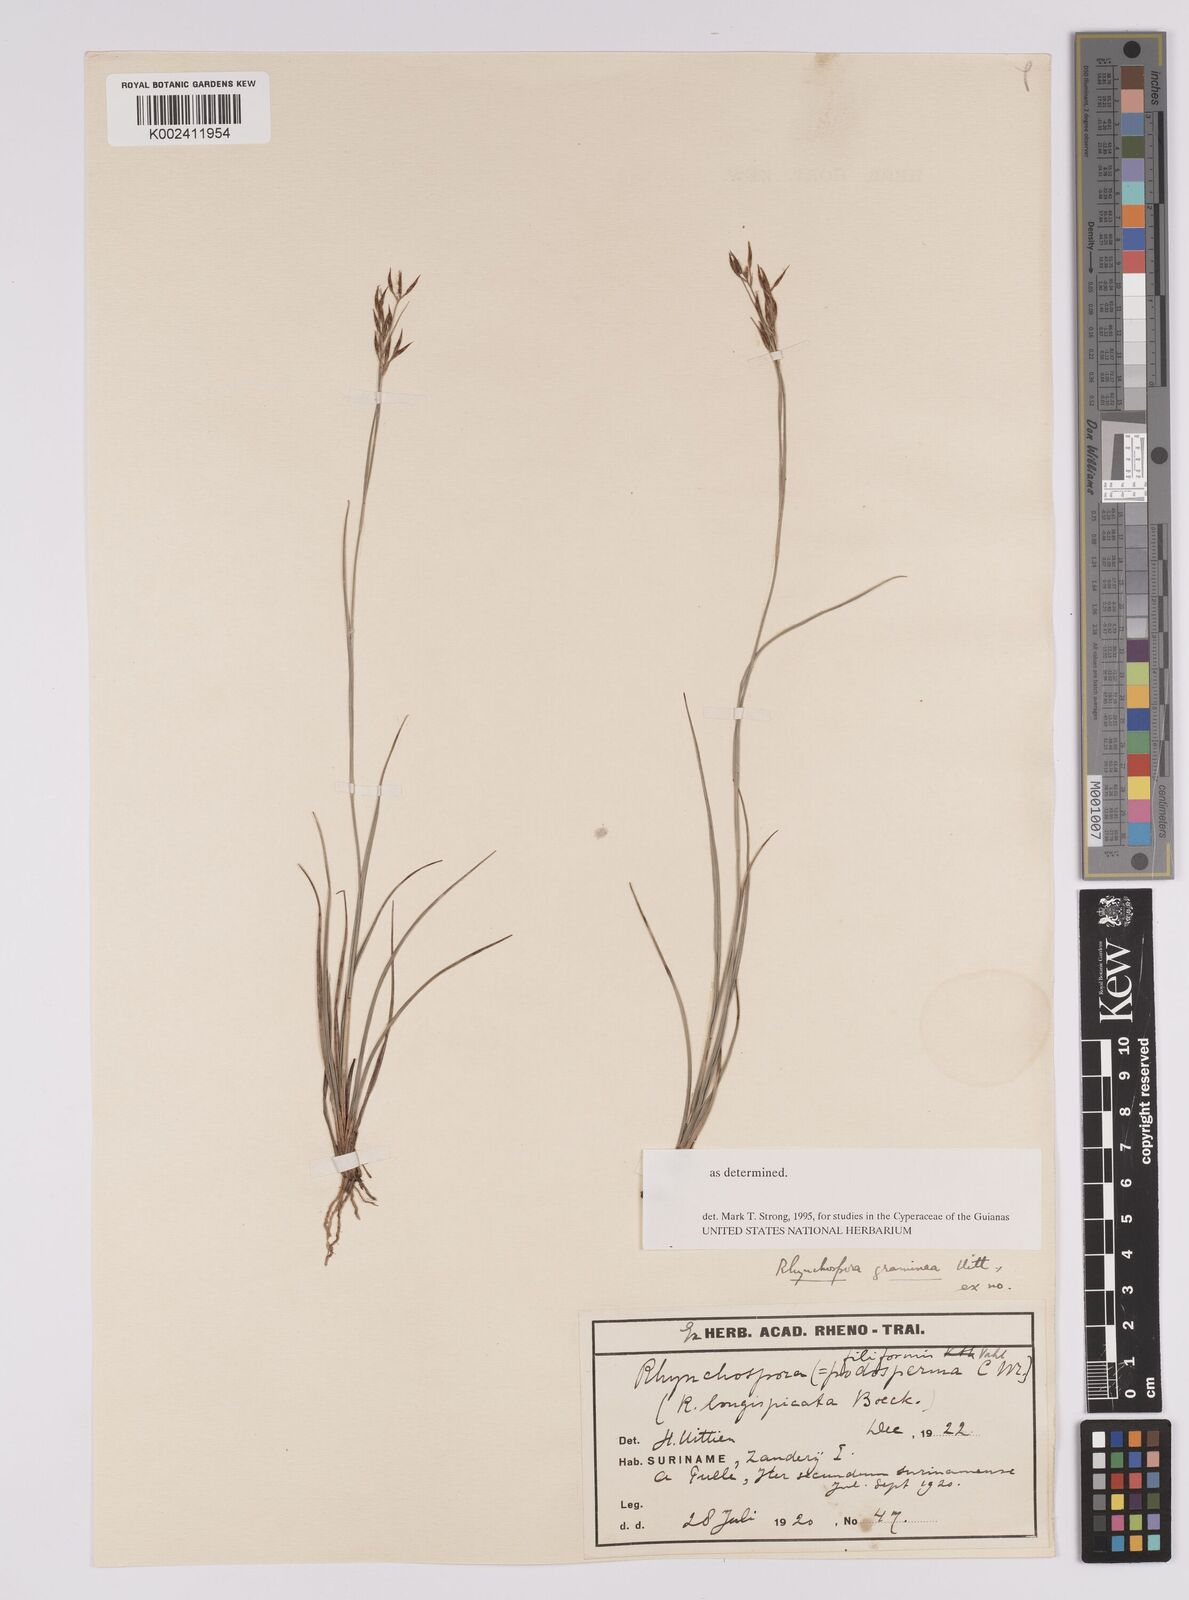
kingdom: Plantae
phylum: Tracheophyta
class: Liliopsida
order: Poales
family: Cyperaceae
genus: Rhynchospora
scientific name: Rhynchospora filiformis
